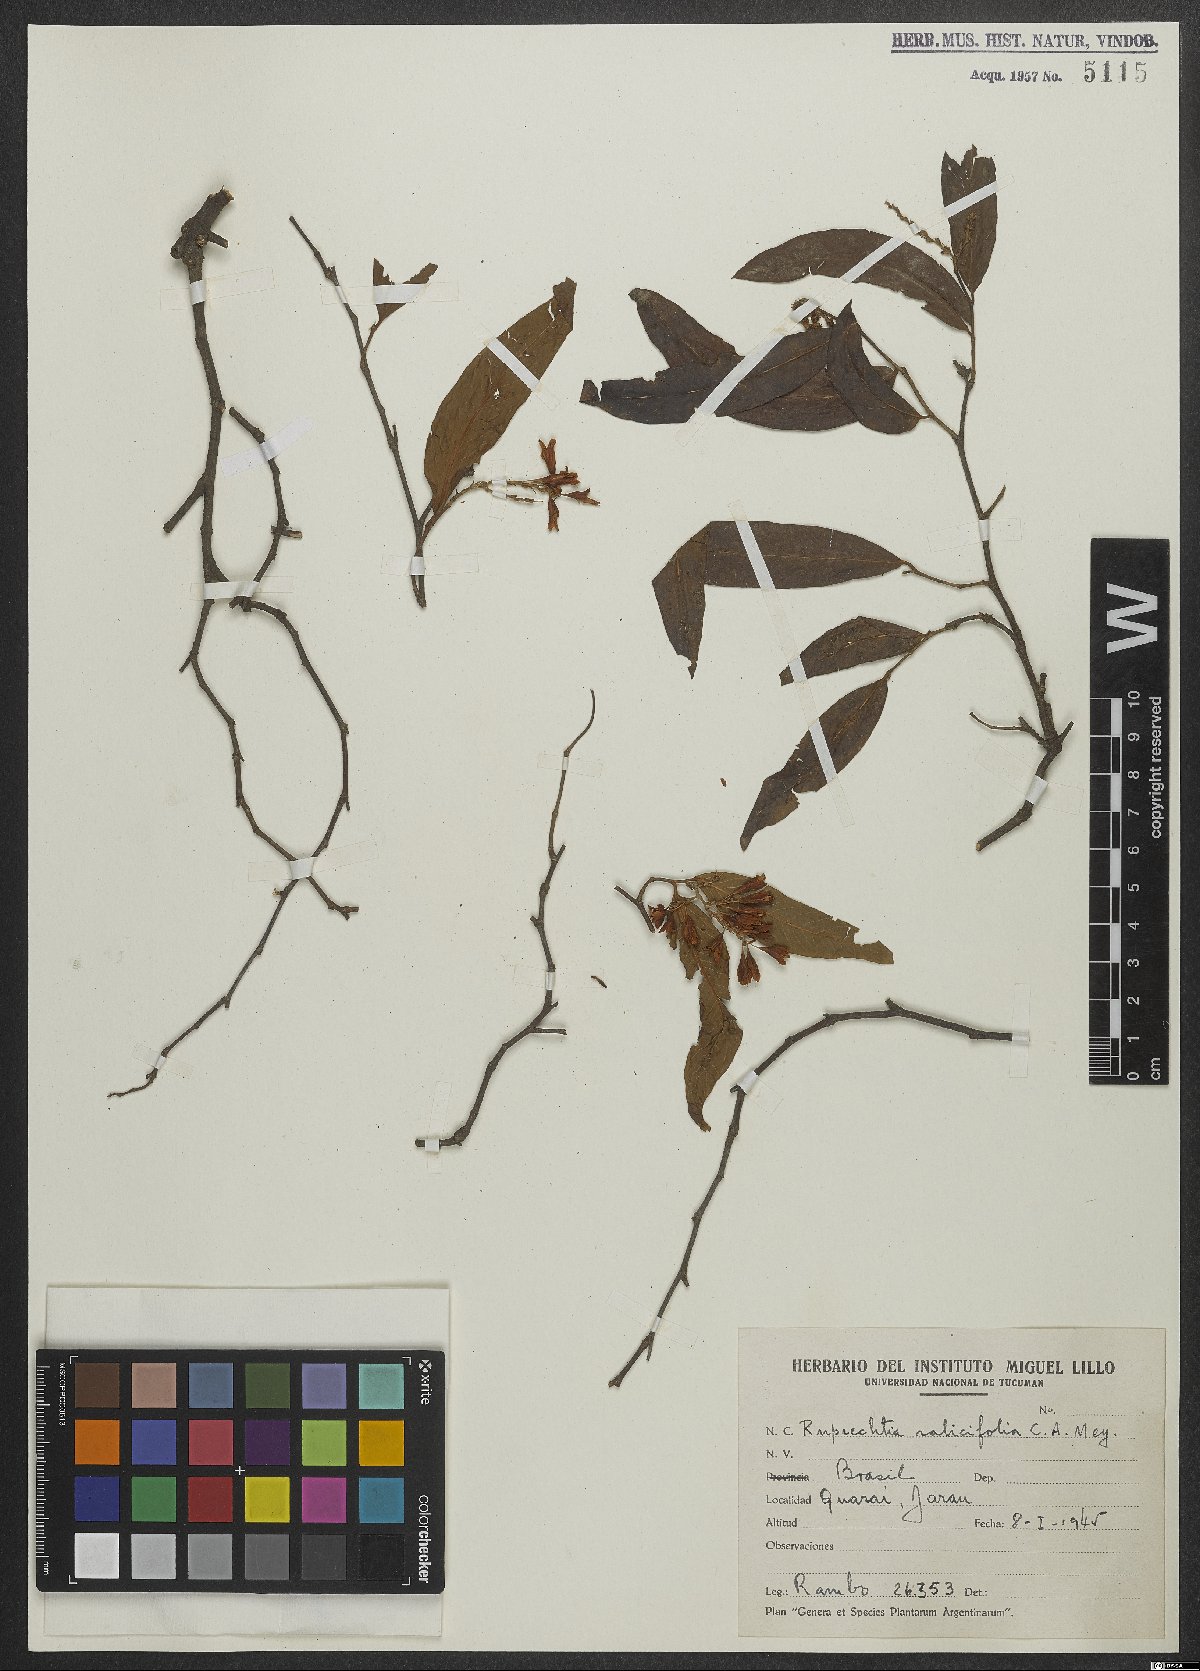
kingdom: Plantae
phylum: Tracheophyta
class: Magnoliopsida
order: Caryophyllales
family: Polygonaceae
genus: Ruprechtia
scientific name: Ruprechtia salicifolia
